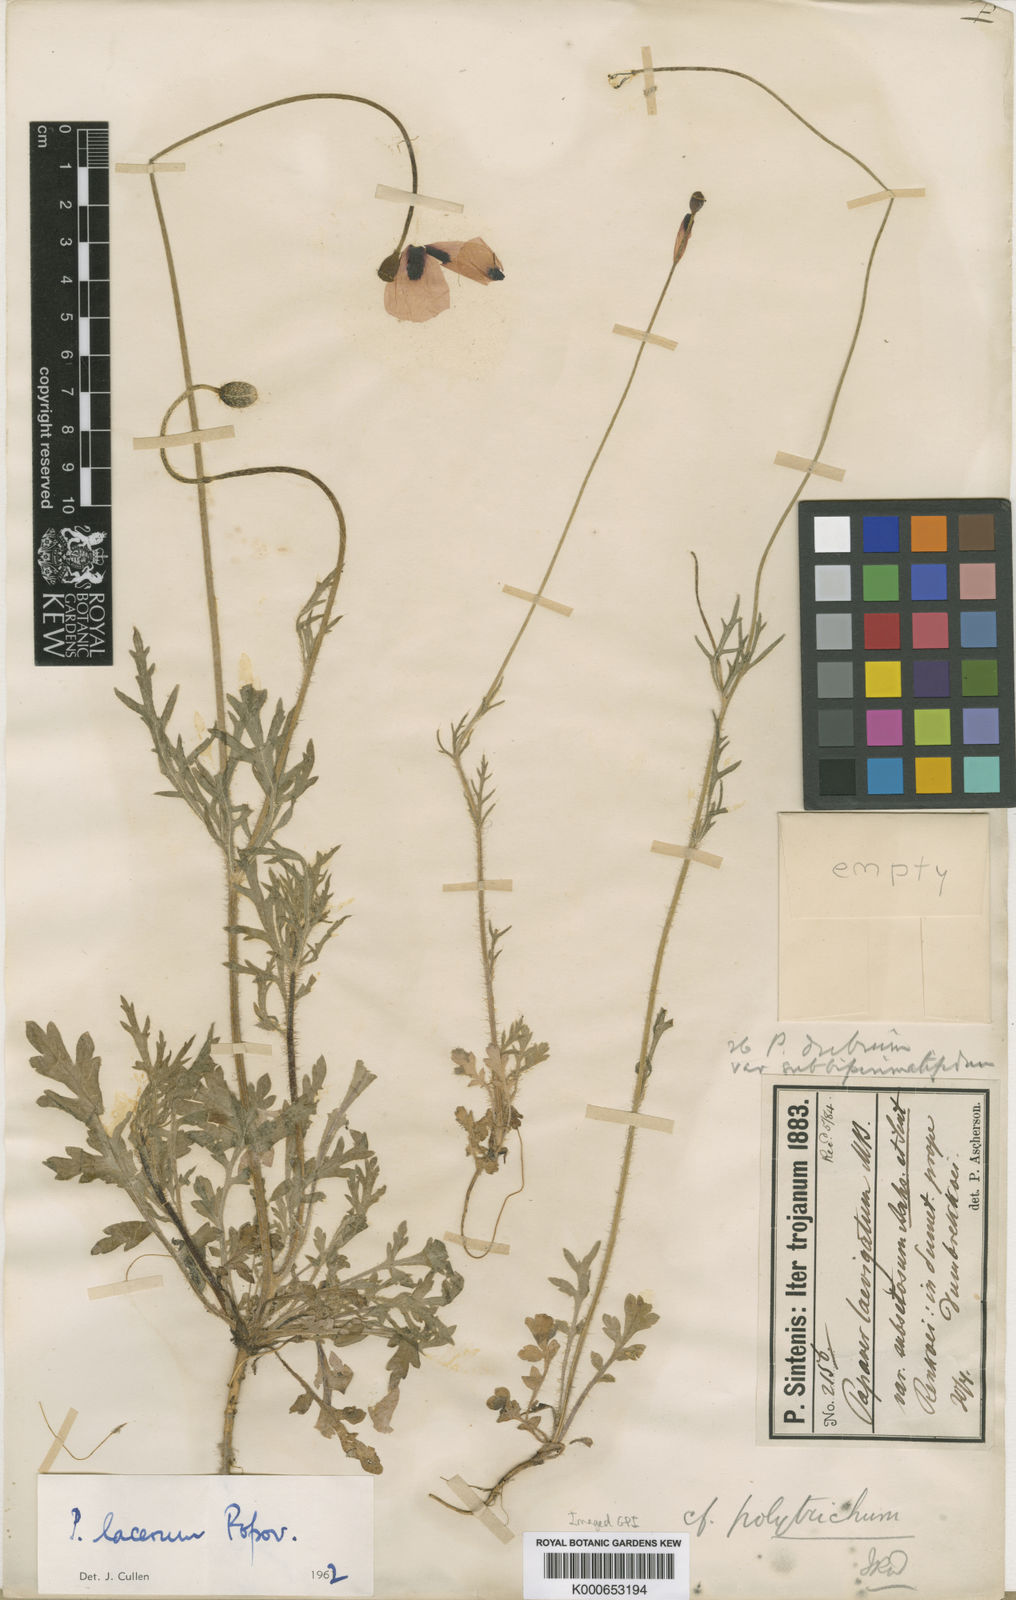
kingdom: Plantae
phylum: Tracheophyta
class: Magnoliopsida
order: Ranunculales
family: Papaveraceae
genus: Papaver
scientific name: Papaver laevigatum
